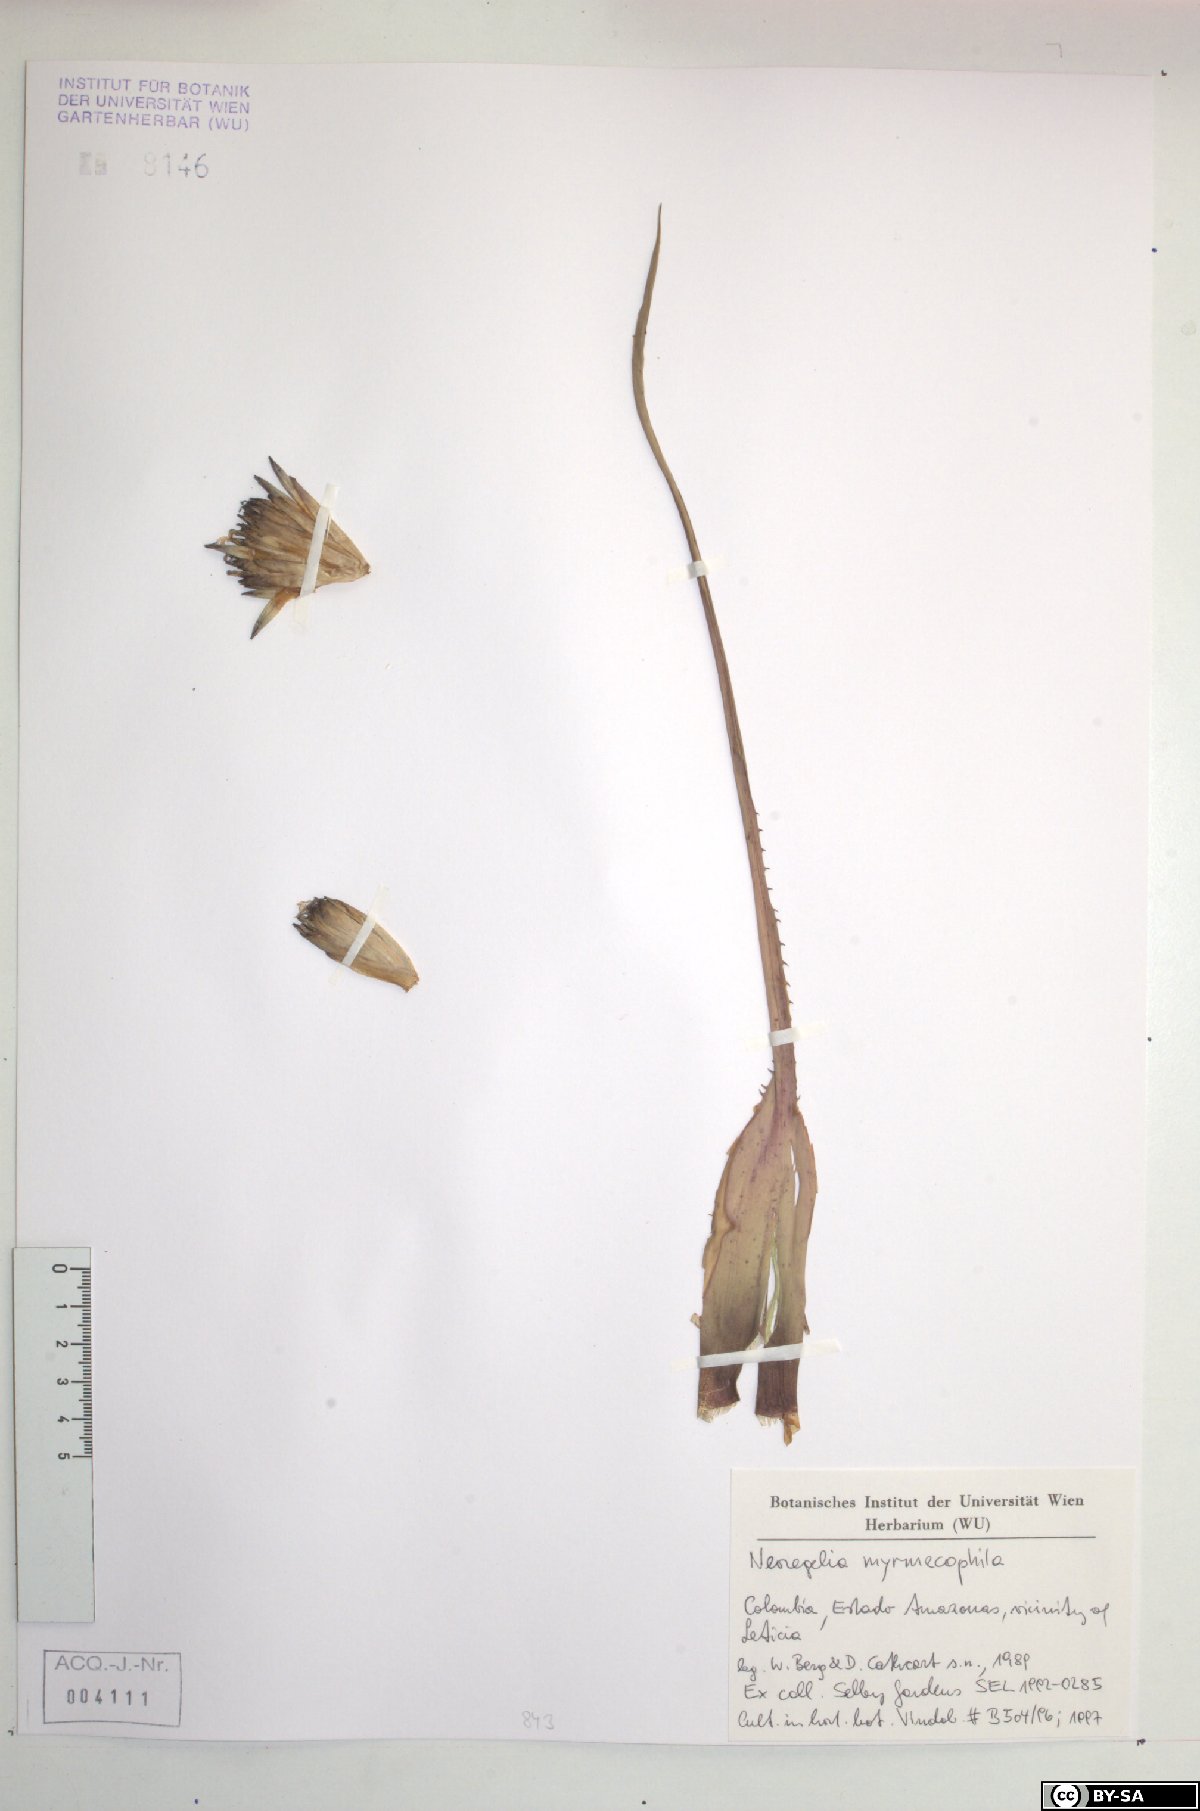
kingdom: Plantae
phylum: Tracheophyta
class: Liliopsida
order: Poales
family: Bromeliaceae
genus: Hylaeaicum
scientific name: Hylaeaicum myrmecophilum
